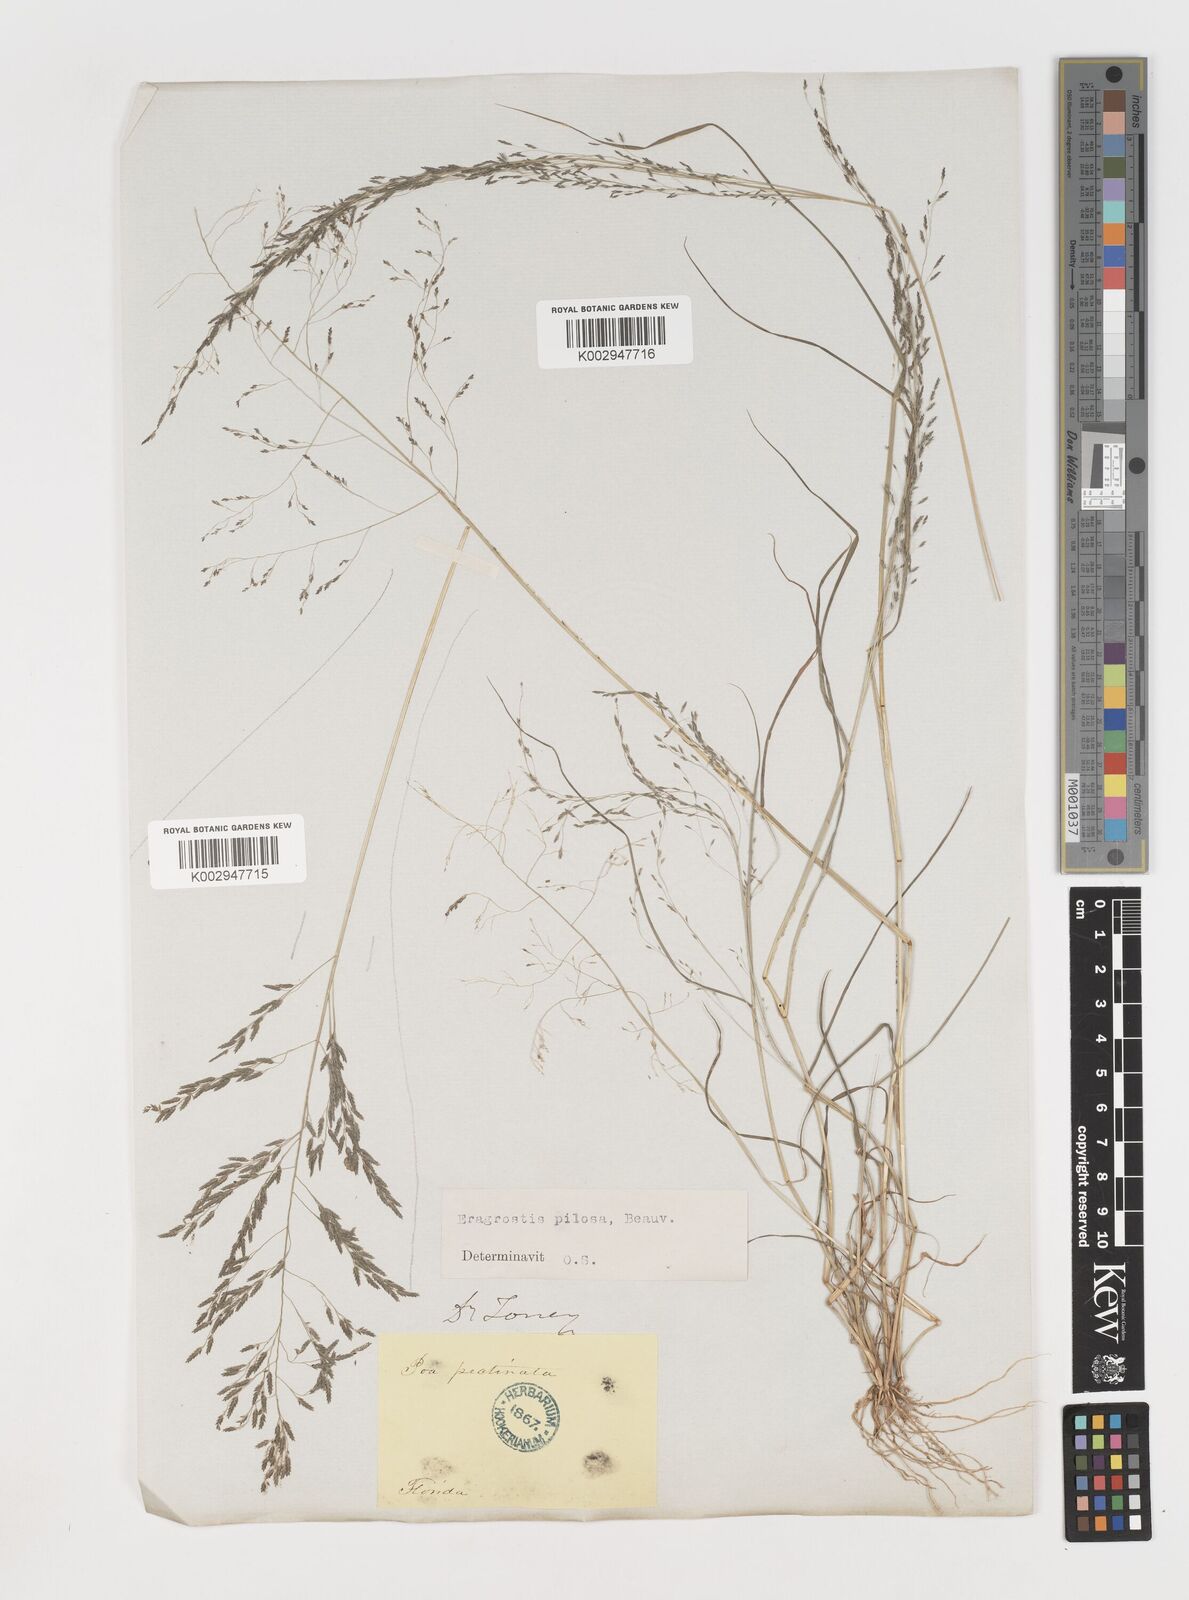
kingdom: Plantae
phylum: Tracheophyta
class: Liliopsida
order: Poales
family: Poaceae
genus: Eragrostis
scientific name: Eragrostis pilosa
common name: Indian lovegrass
